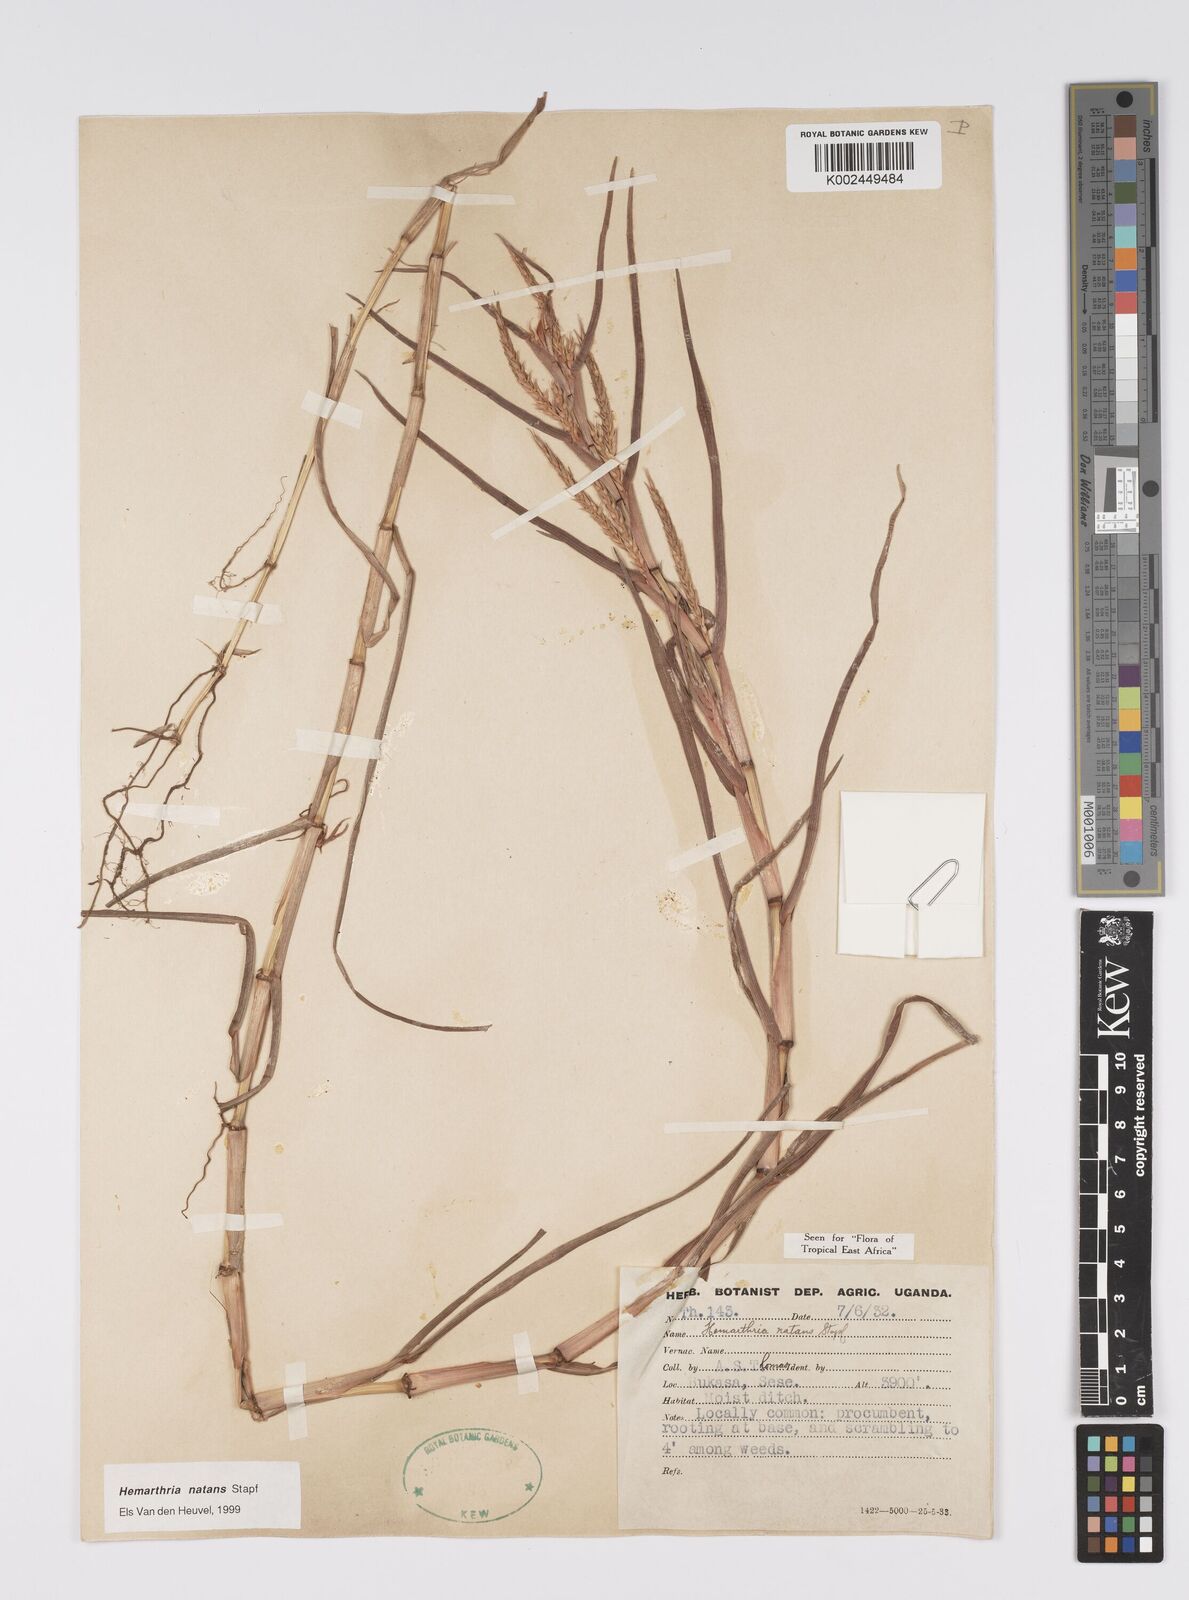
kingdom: Plantae
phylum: Tracheophyta
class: Liliopsida
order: Poales
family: Poaceae
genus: Hemarthria
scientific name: Hemarthria natans
